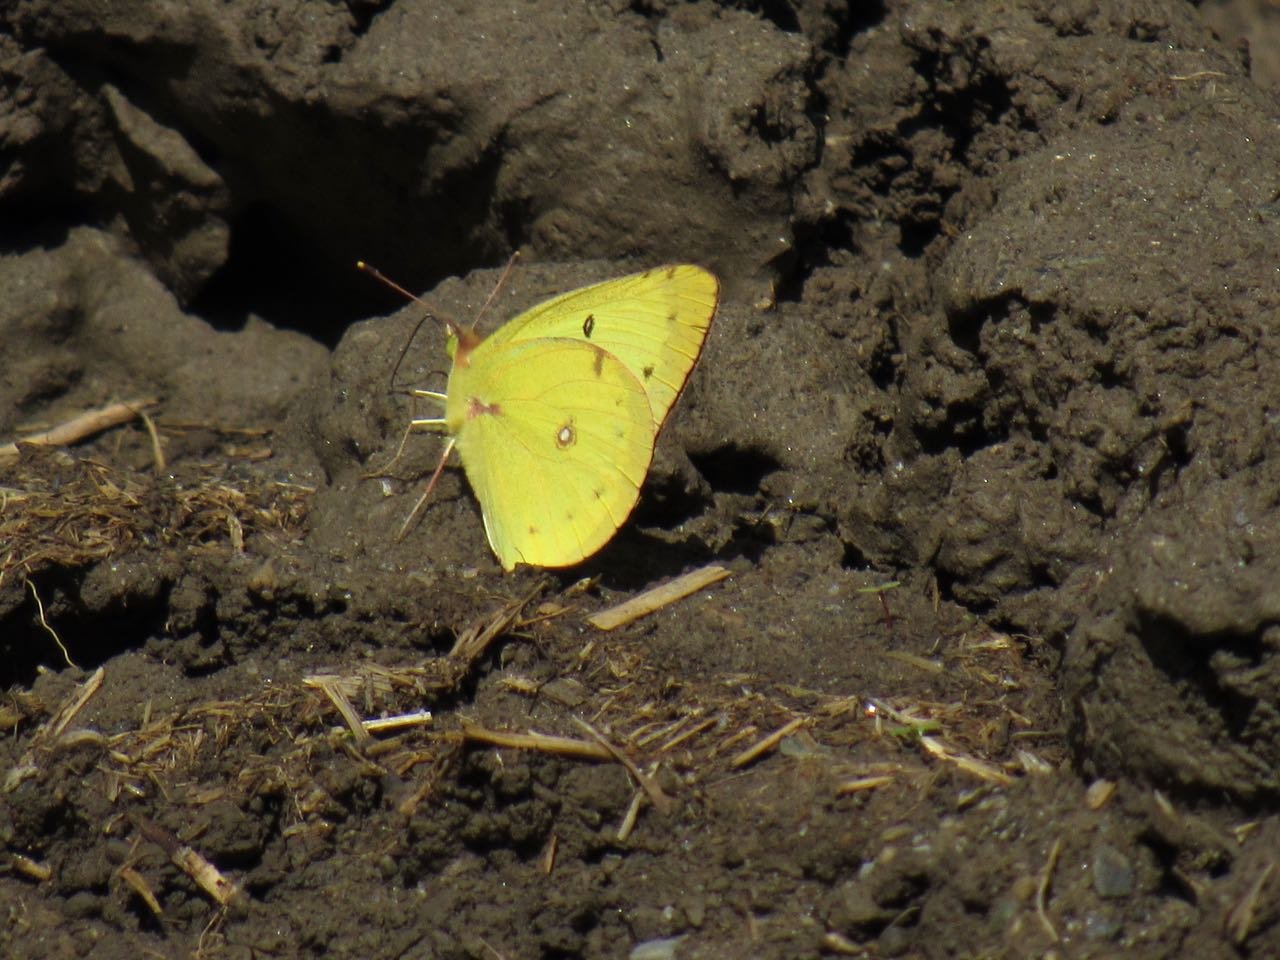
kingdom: Animalia
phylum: Arthropoda
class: Insecta
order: Lepidoptera
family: Pieridae
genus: Colias
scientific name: Colias philodice
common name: Clouded Sulphur
